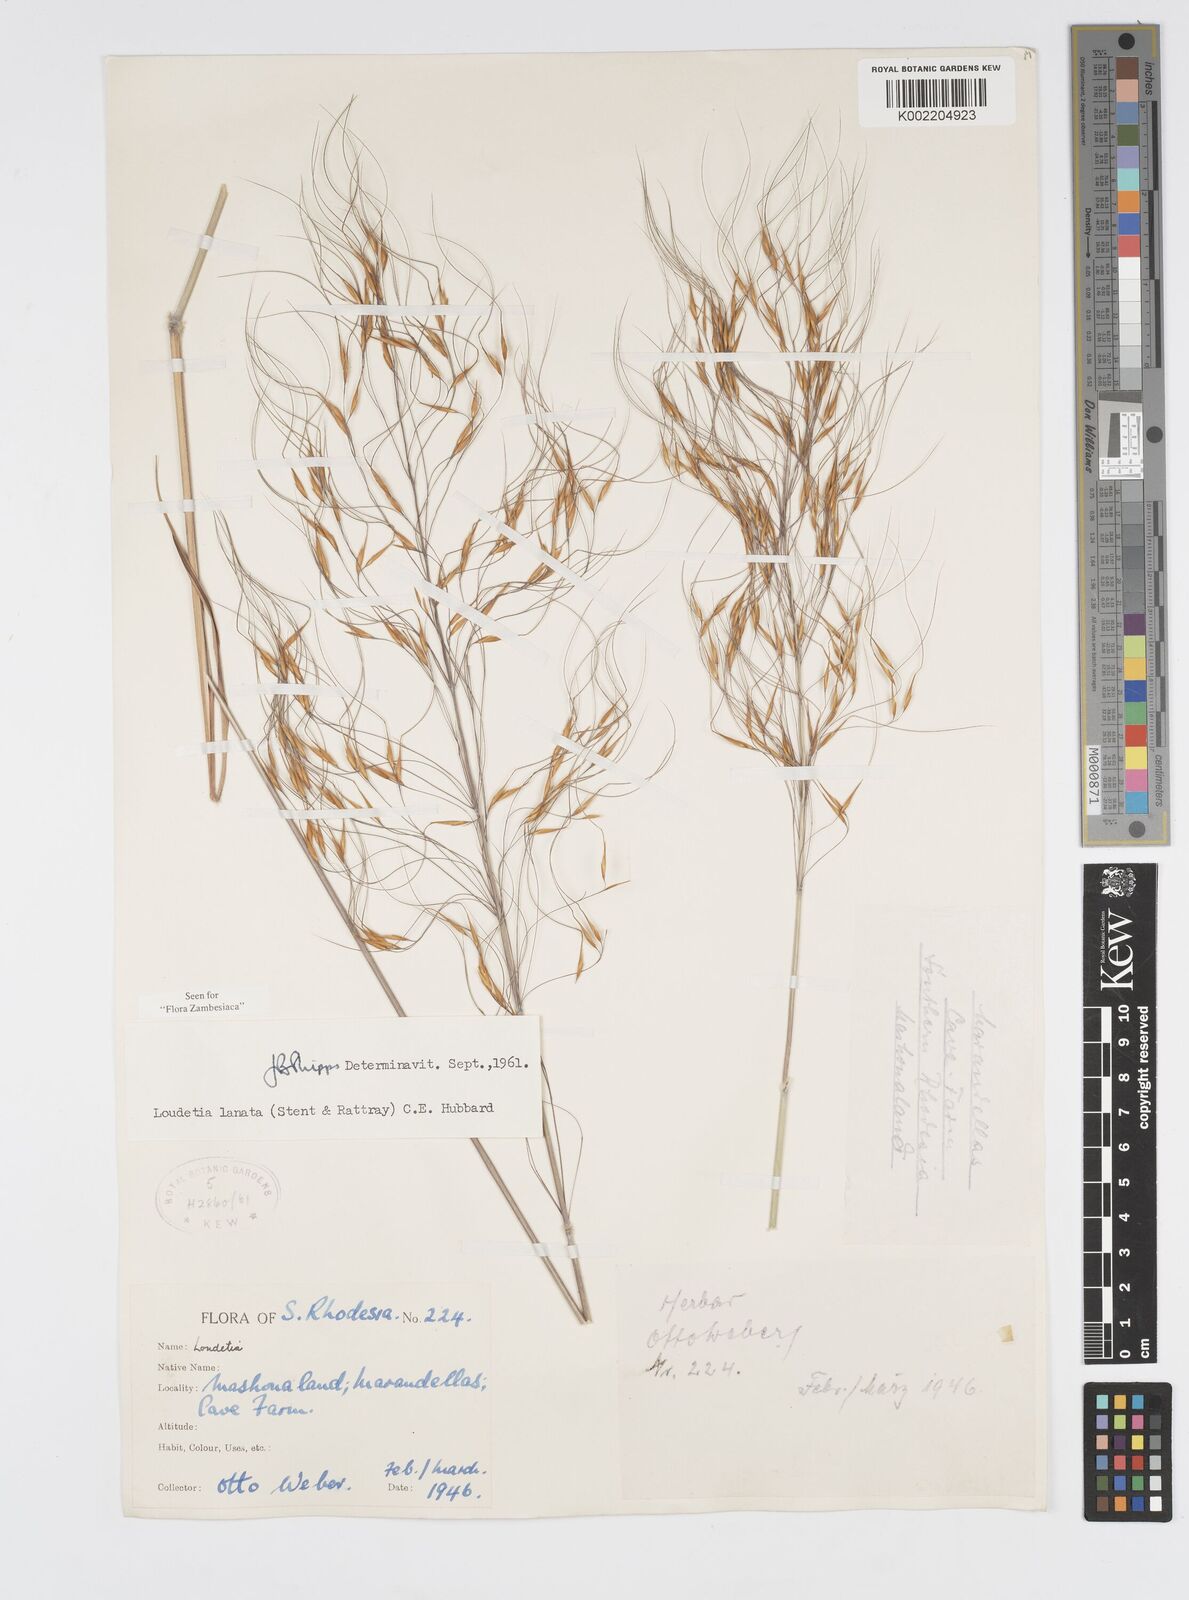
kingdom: Plantae
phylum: Tracheophyta
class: Liliopsida
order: Poales
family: Poaceae
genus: Loudetia
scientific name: Loudetia lanata
